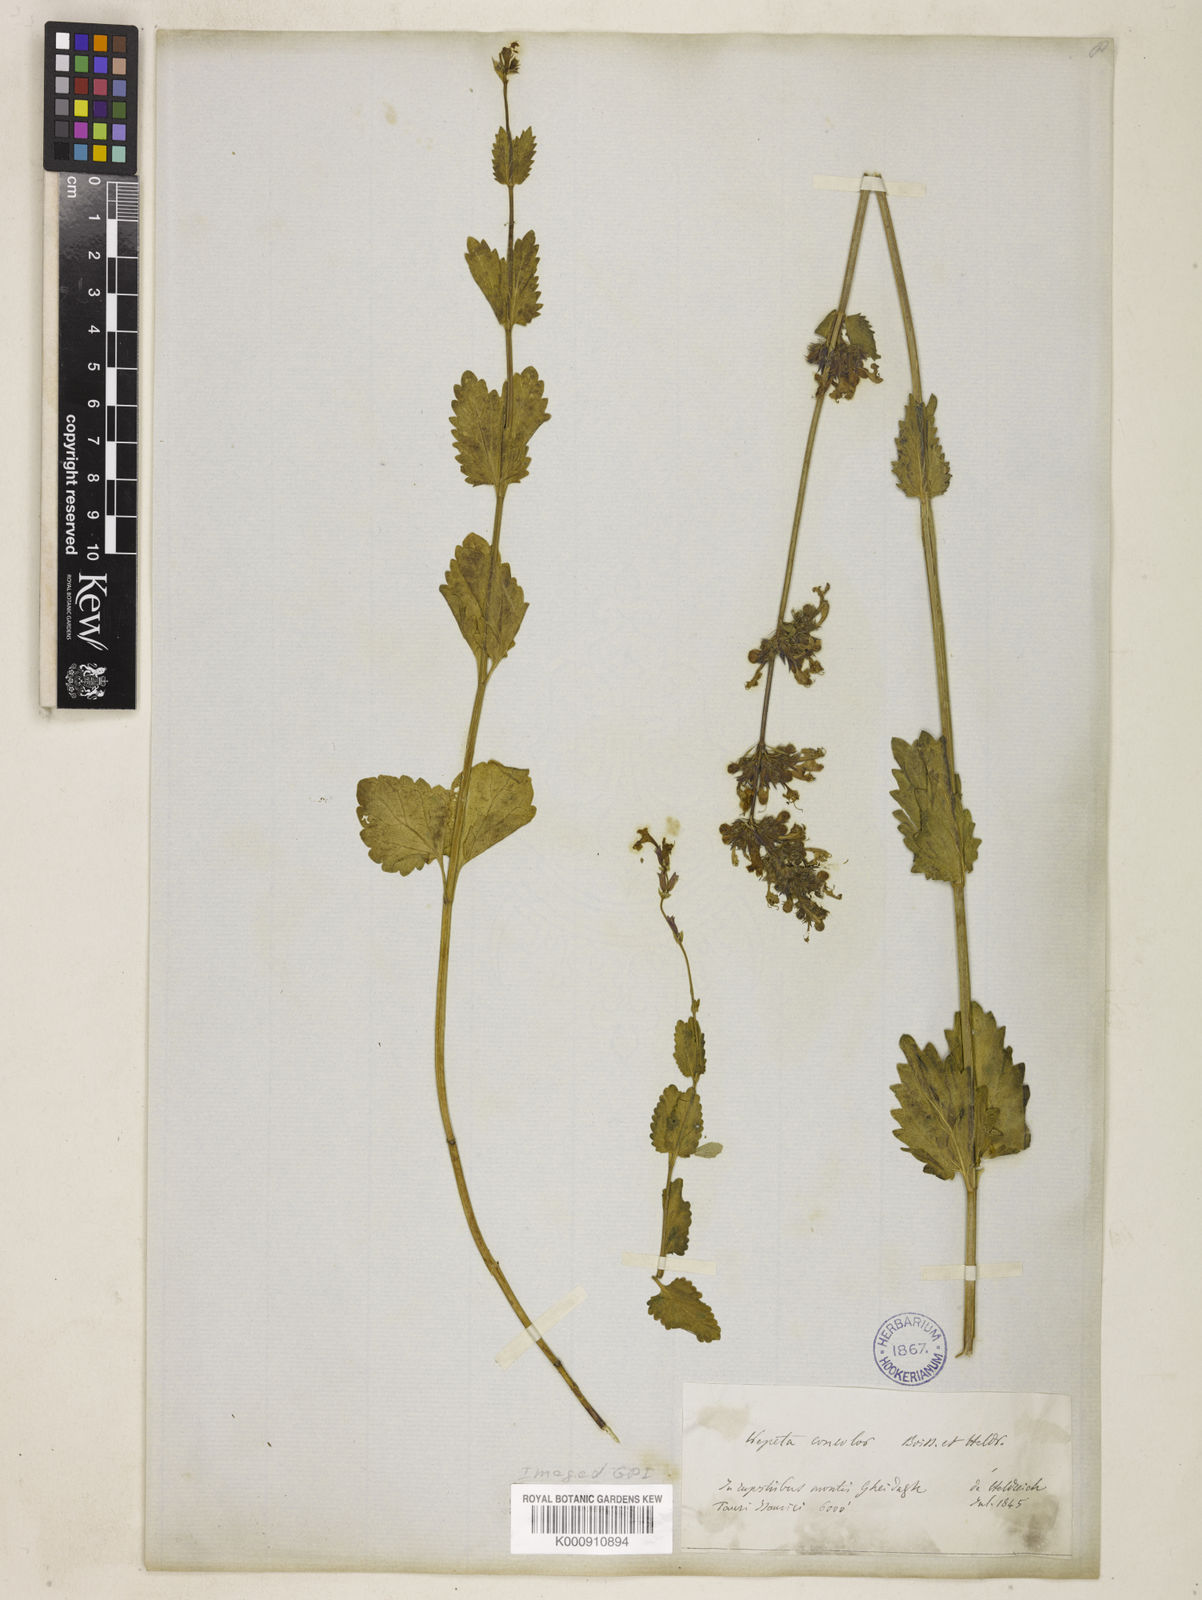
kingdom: Plantae
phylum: Tracheophyta
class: Magnoliopsida
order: Lamiales
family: Lamiaceae
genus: Nepeta
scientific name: Nepeta betonicifolia
